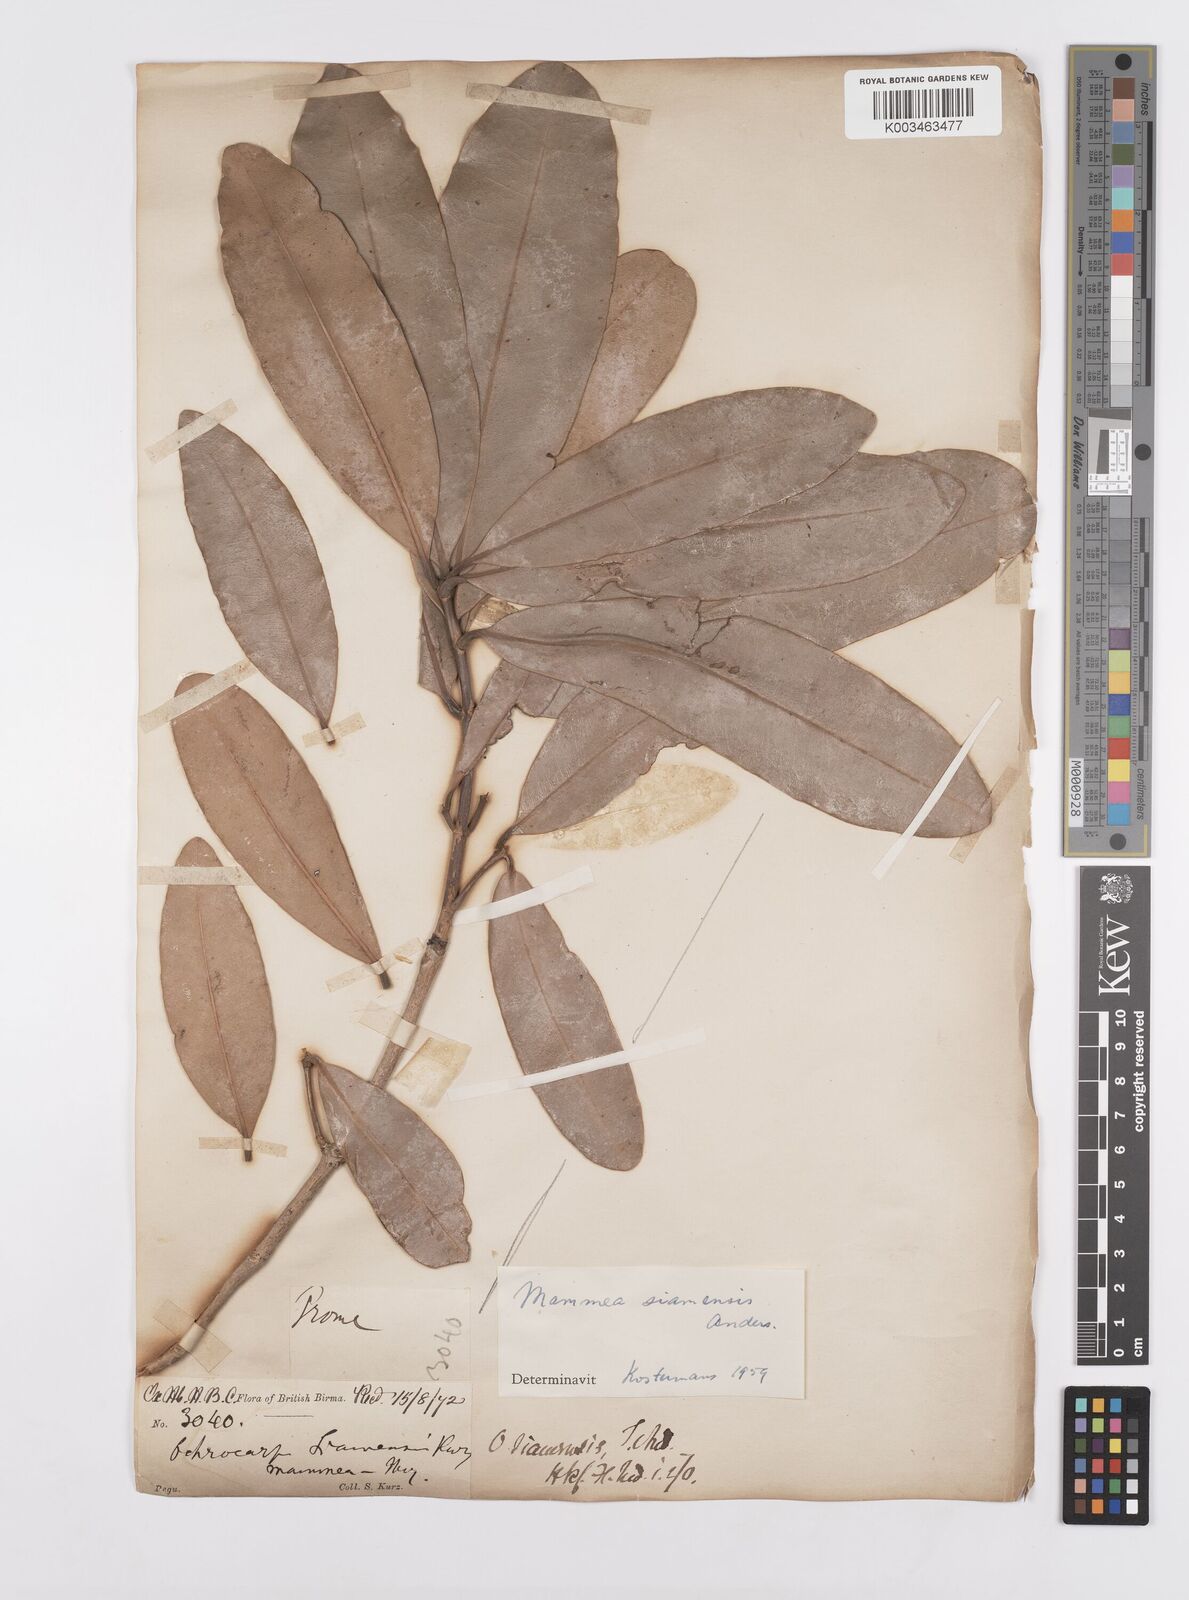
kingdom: Plantae
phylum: Tracheophyta
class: Magnoliopsida
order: Malpighiales
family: Calophyllaceae
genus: Mammea
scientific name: Mammea siamensis
